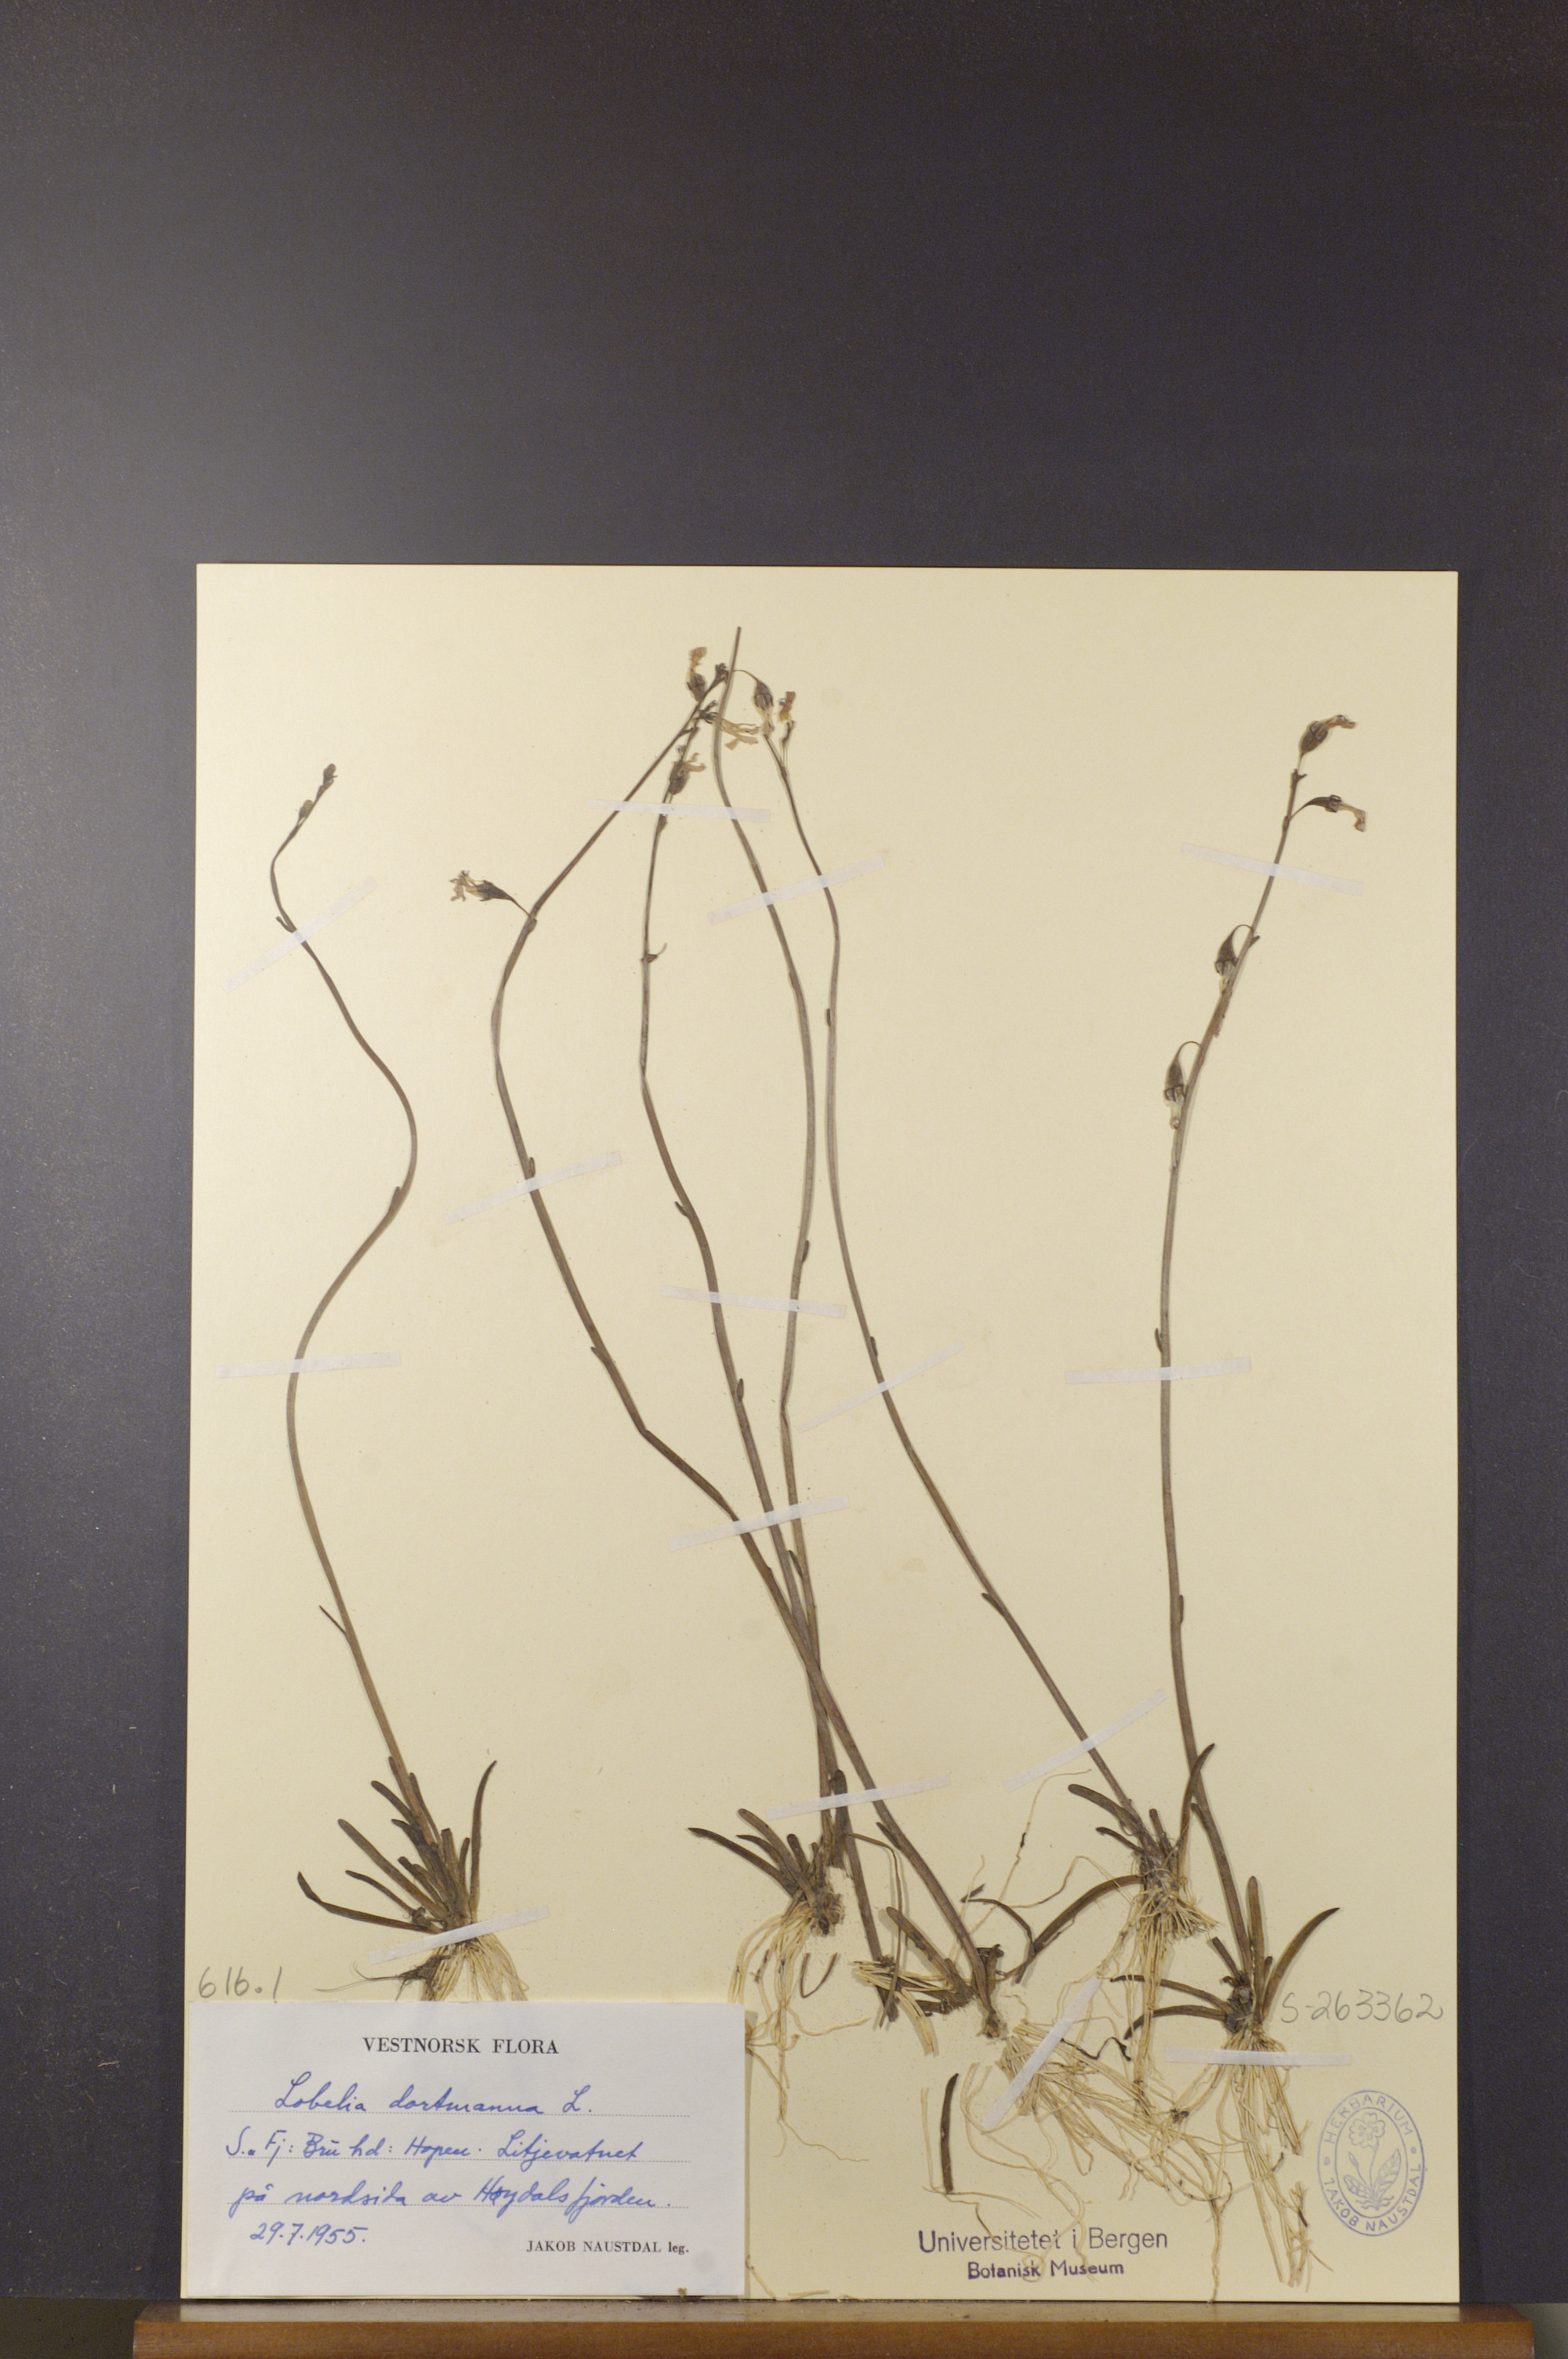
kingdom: Plantae
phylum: Tracheophyta
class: Magnoliopsida
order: Asterales
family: Campanulaceae
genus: Lobelia
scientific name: Lobelia dortmanna
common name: Water lobelia
